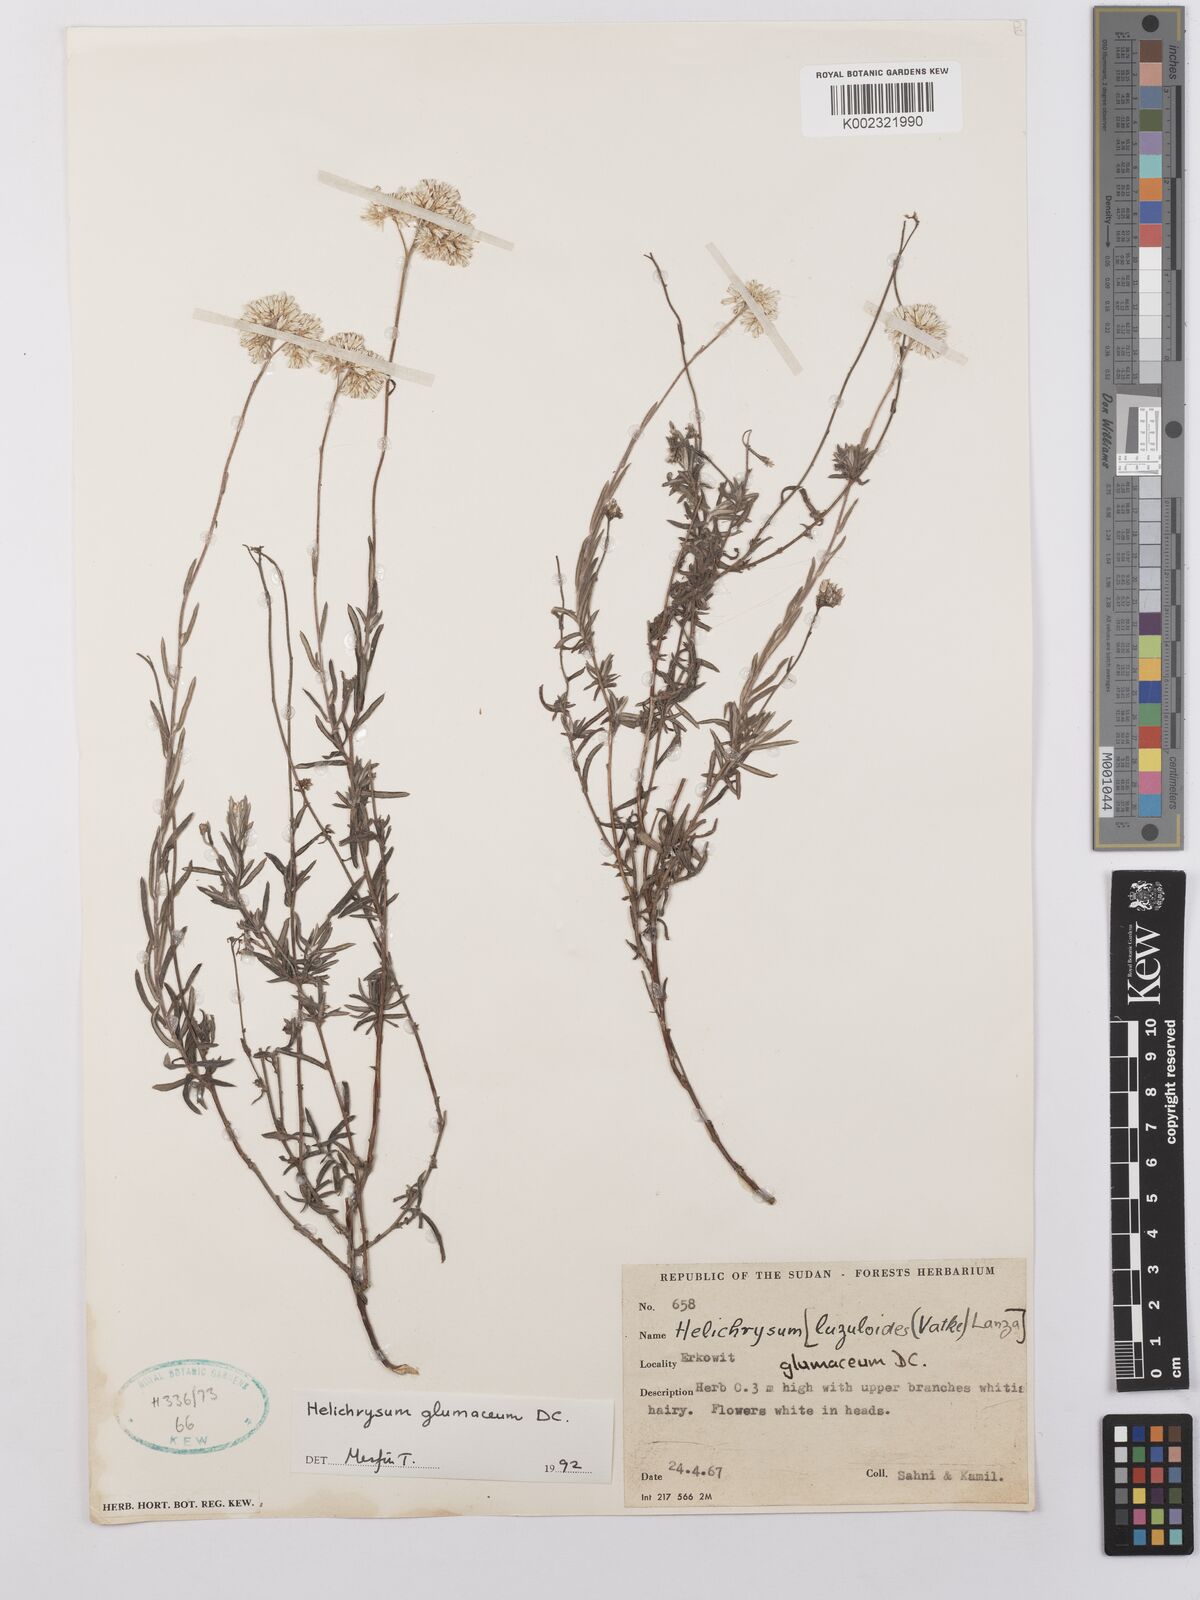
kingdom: Plantae
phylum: Tracheophyta
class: Magnoliopsida
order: Asterales
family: Asteraceae
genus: Helichrysum
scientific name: Helichrysum glumaceum
